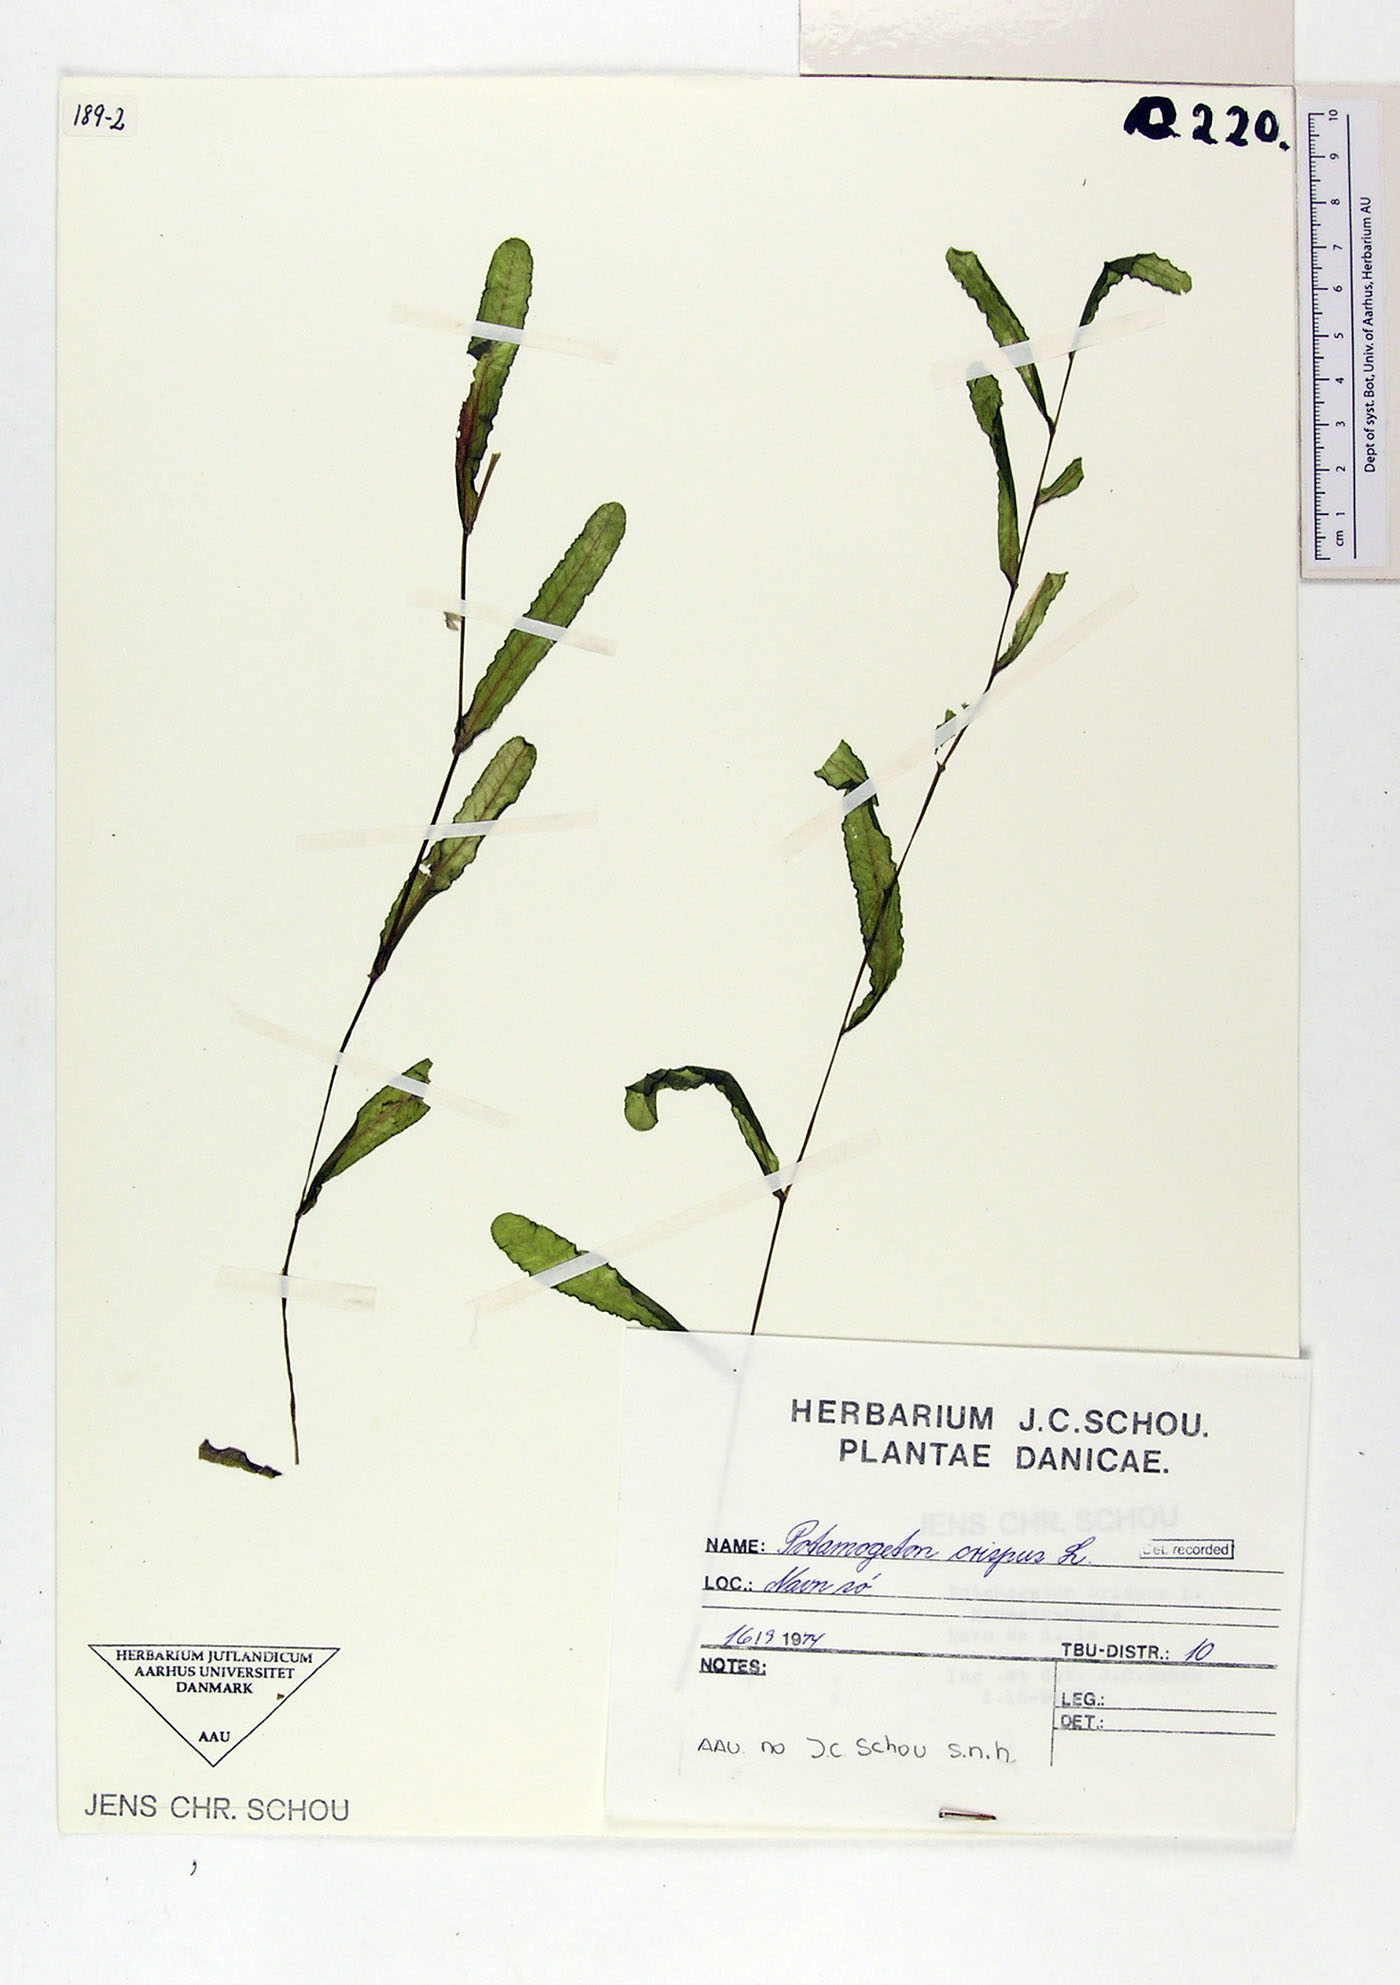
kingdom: Plantae
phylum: Tracheophyta
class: Liliopsida
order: Alismatales
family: Potamogetonaceae
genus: Potamogeton
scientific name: Potamogeton crispus
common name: Curled pondweed
